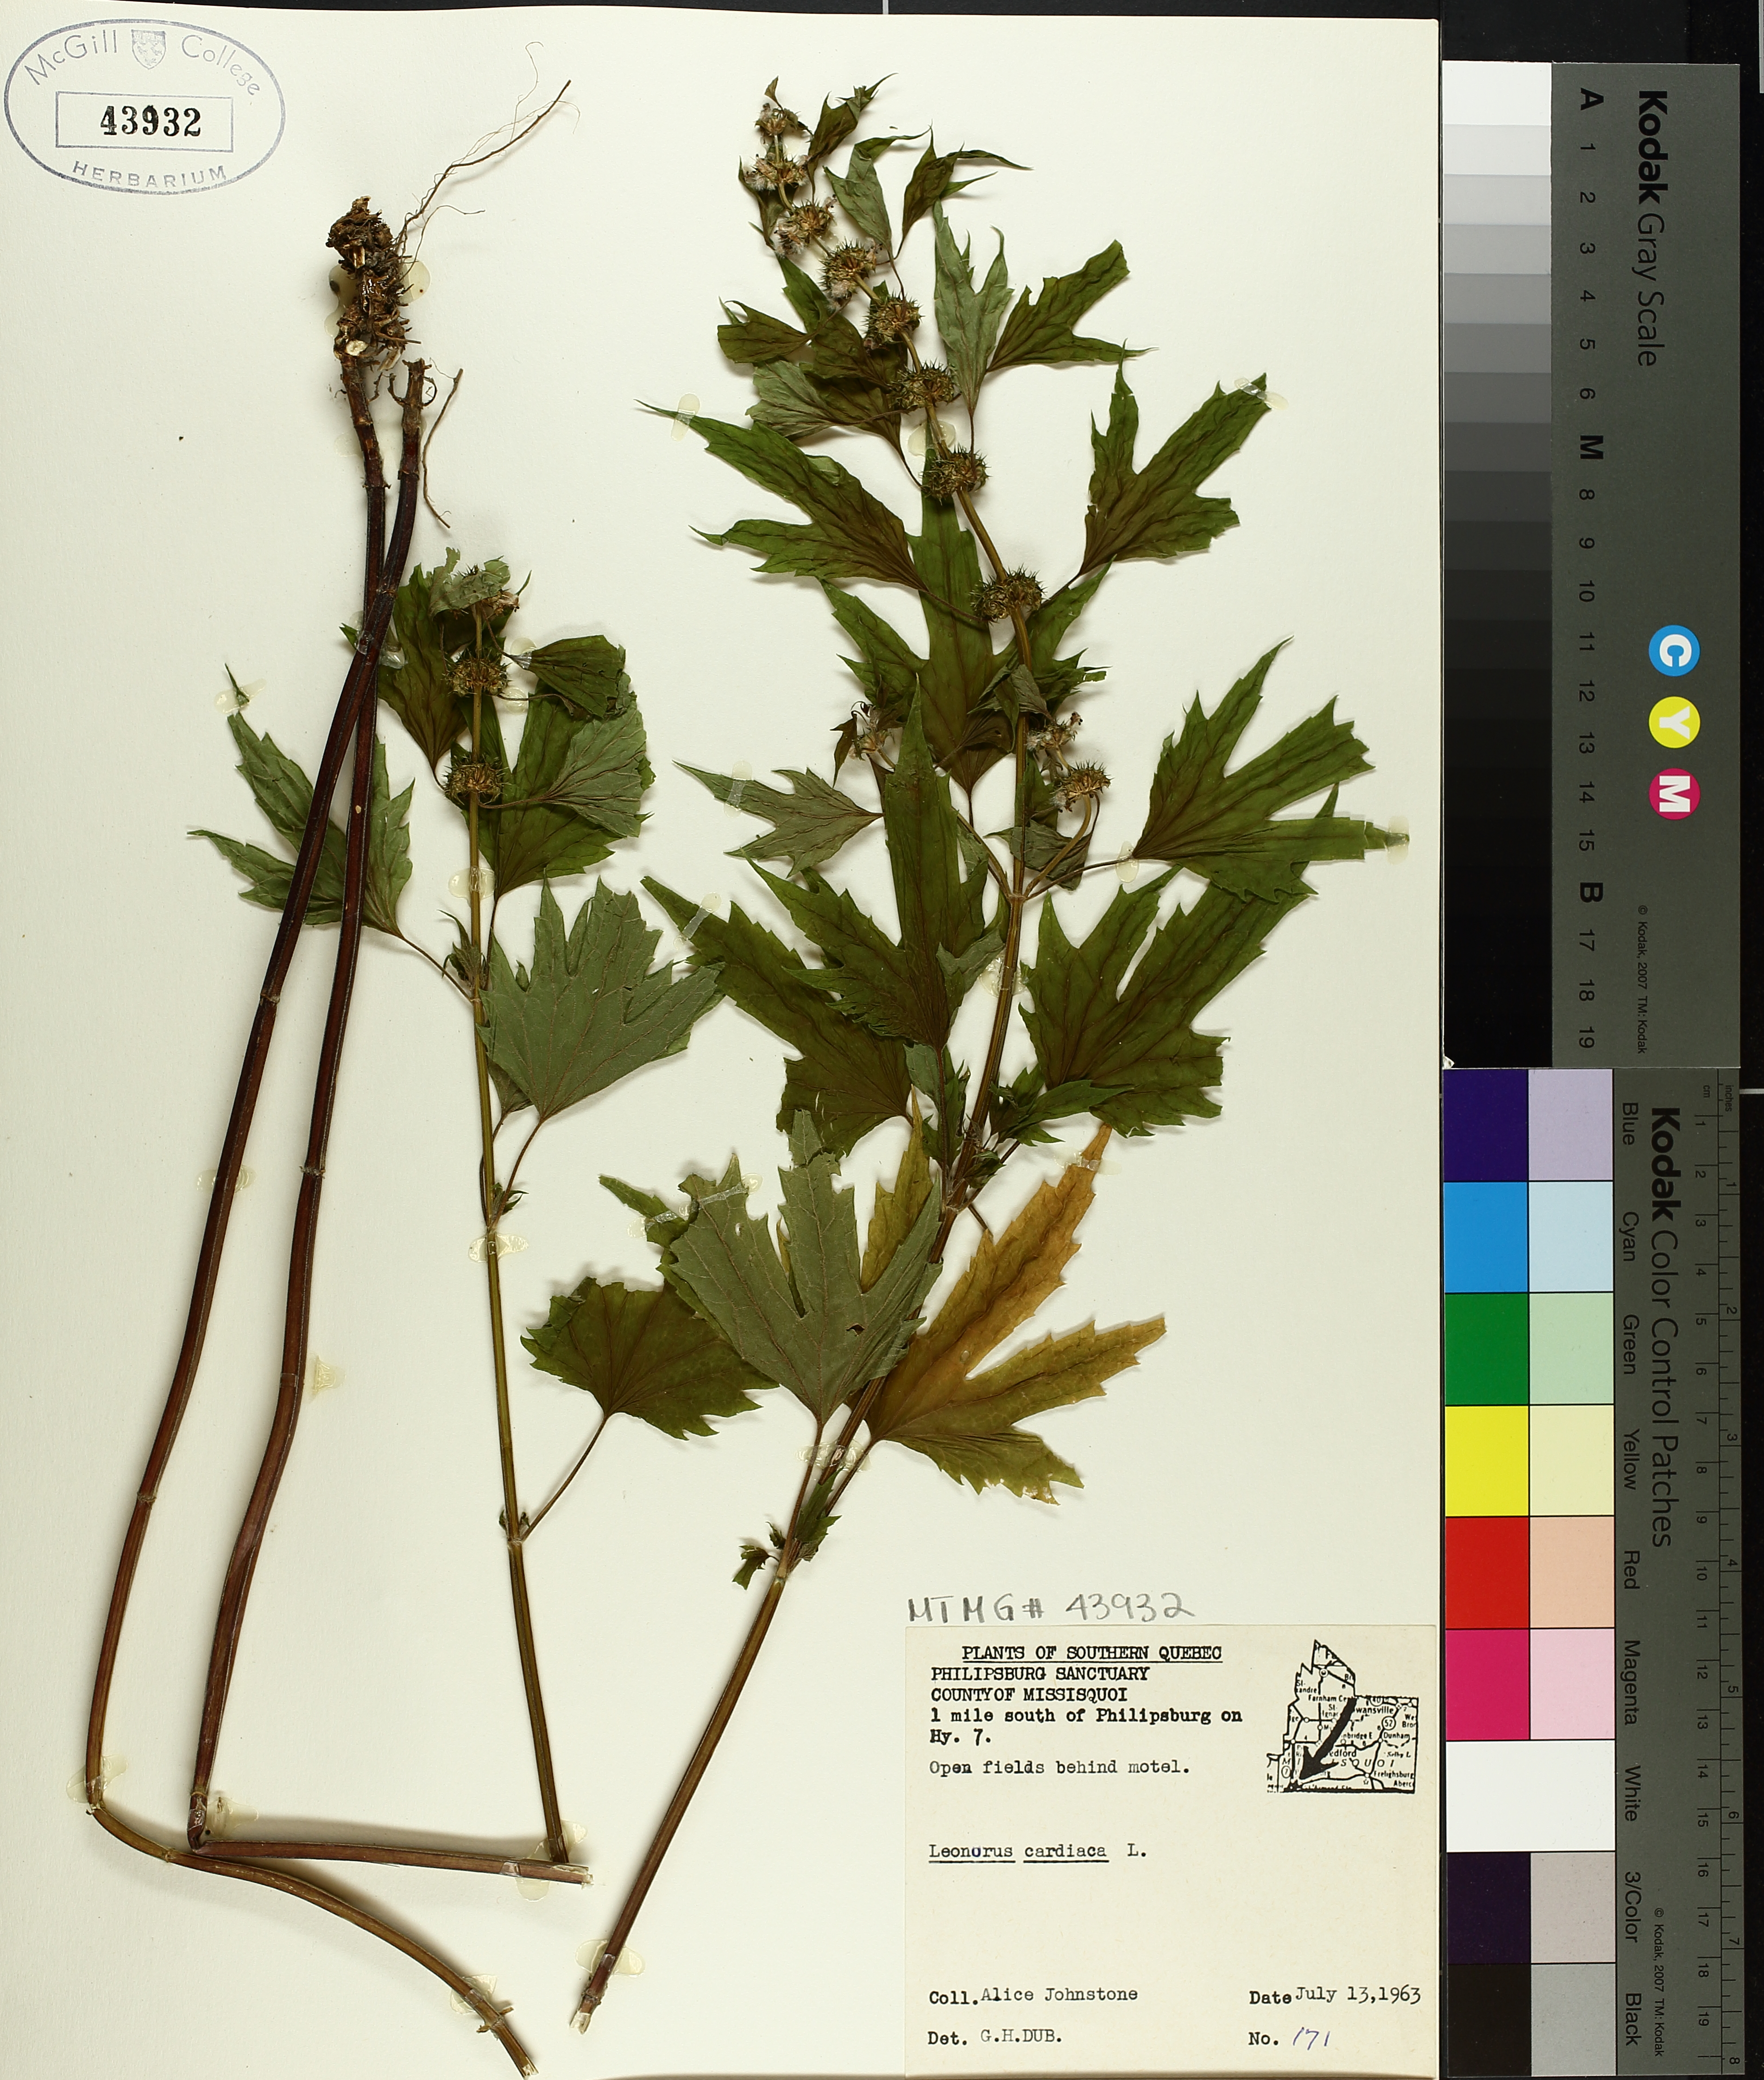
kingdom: Plantae
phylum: Tracheophyta
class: Magnoliopsida
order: Lamiales
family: Lamiaceae
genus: Leonurus
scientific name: Leonurus cardiaca
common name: Motherwort
